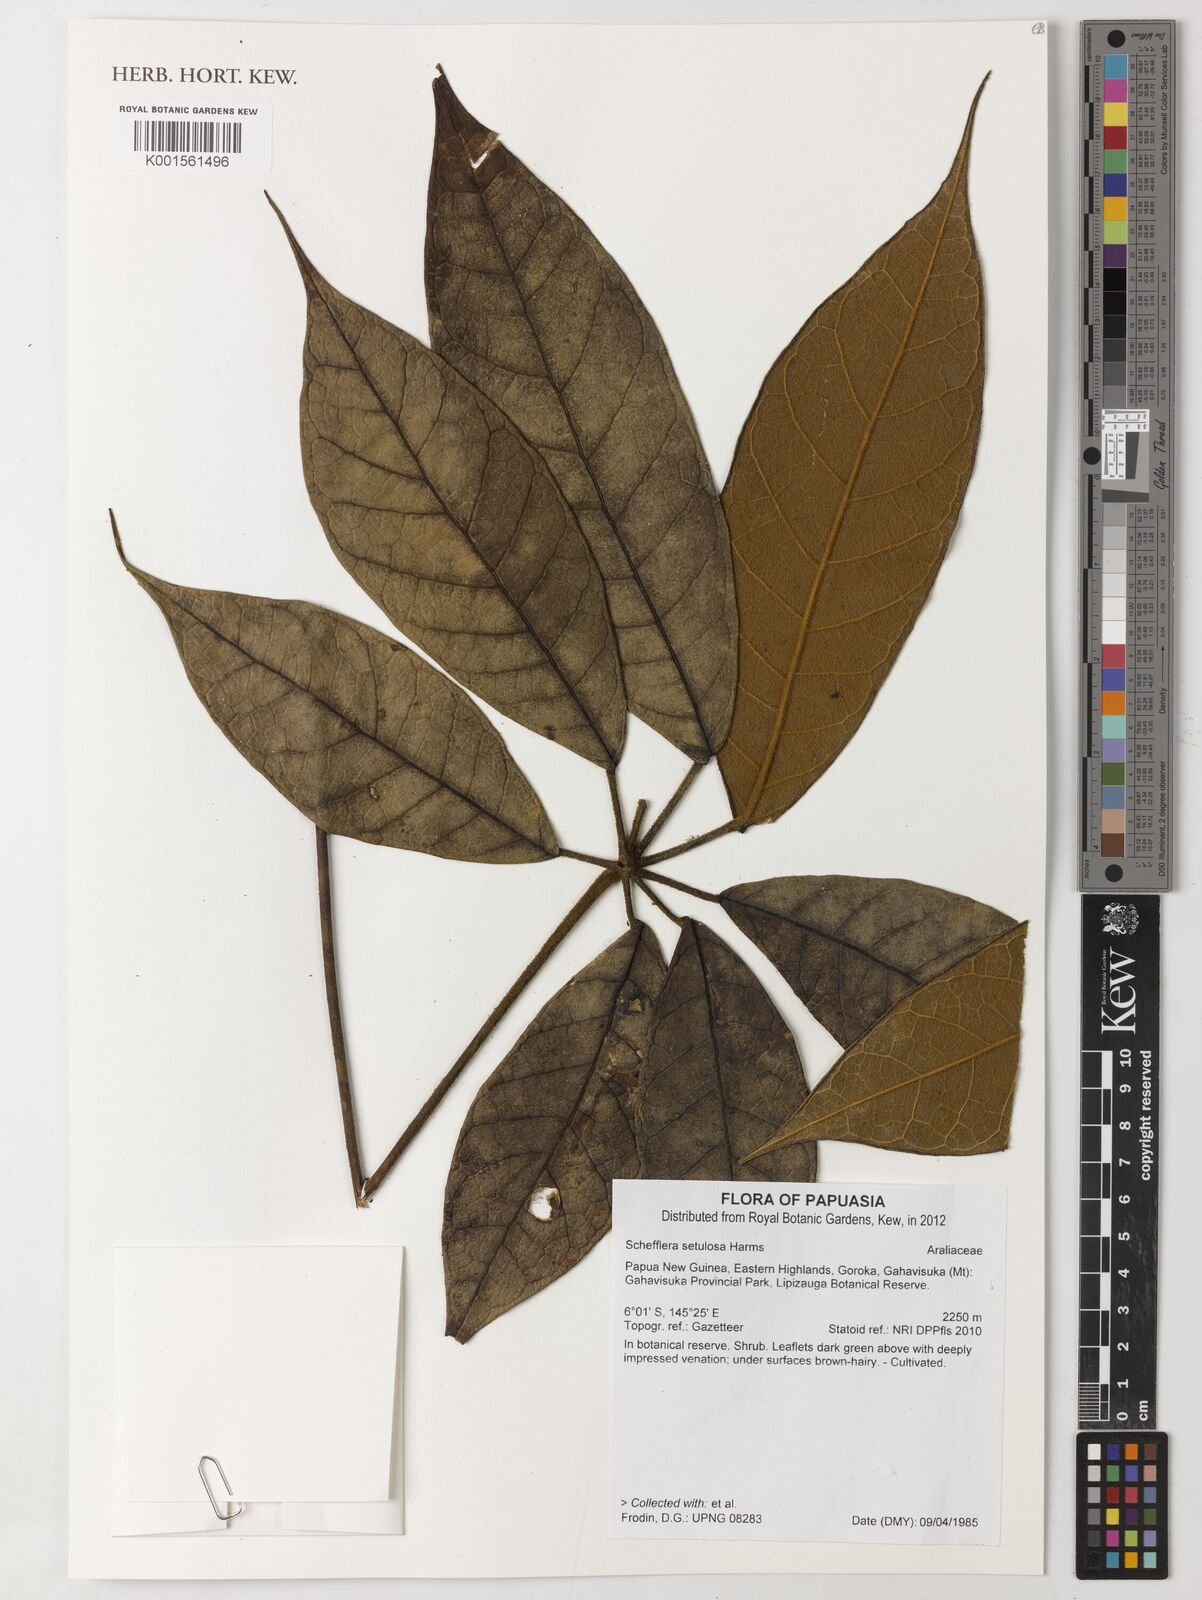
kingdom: Plantae
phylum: Tracheophyta
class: Magnoliopsida
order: Apiales
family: Araliaceae
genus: Heptapleurum
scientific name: Heptapleurum setulosum
